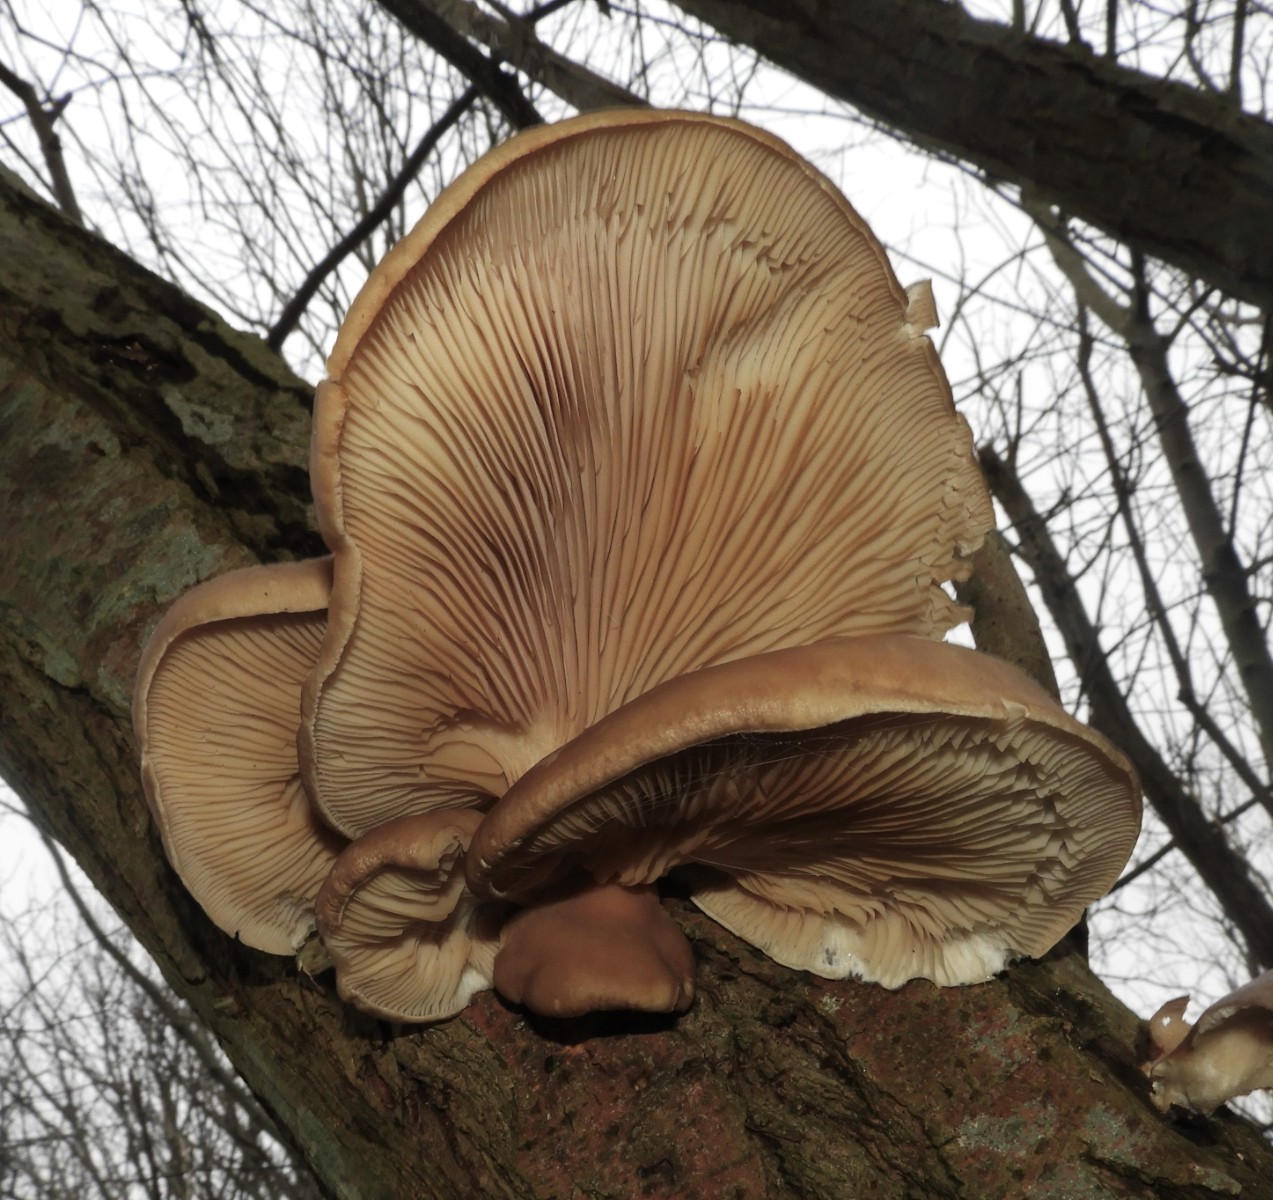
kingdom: Fungi
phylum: Basidiomycota
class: Agaricomycetes
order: Agaricales
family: Pleurotaceae
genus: Pleurotus
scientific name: Pleurotus ostreatus
